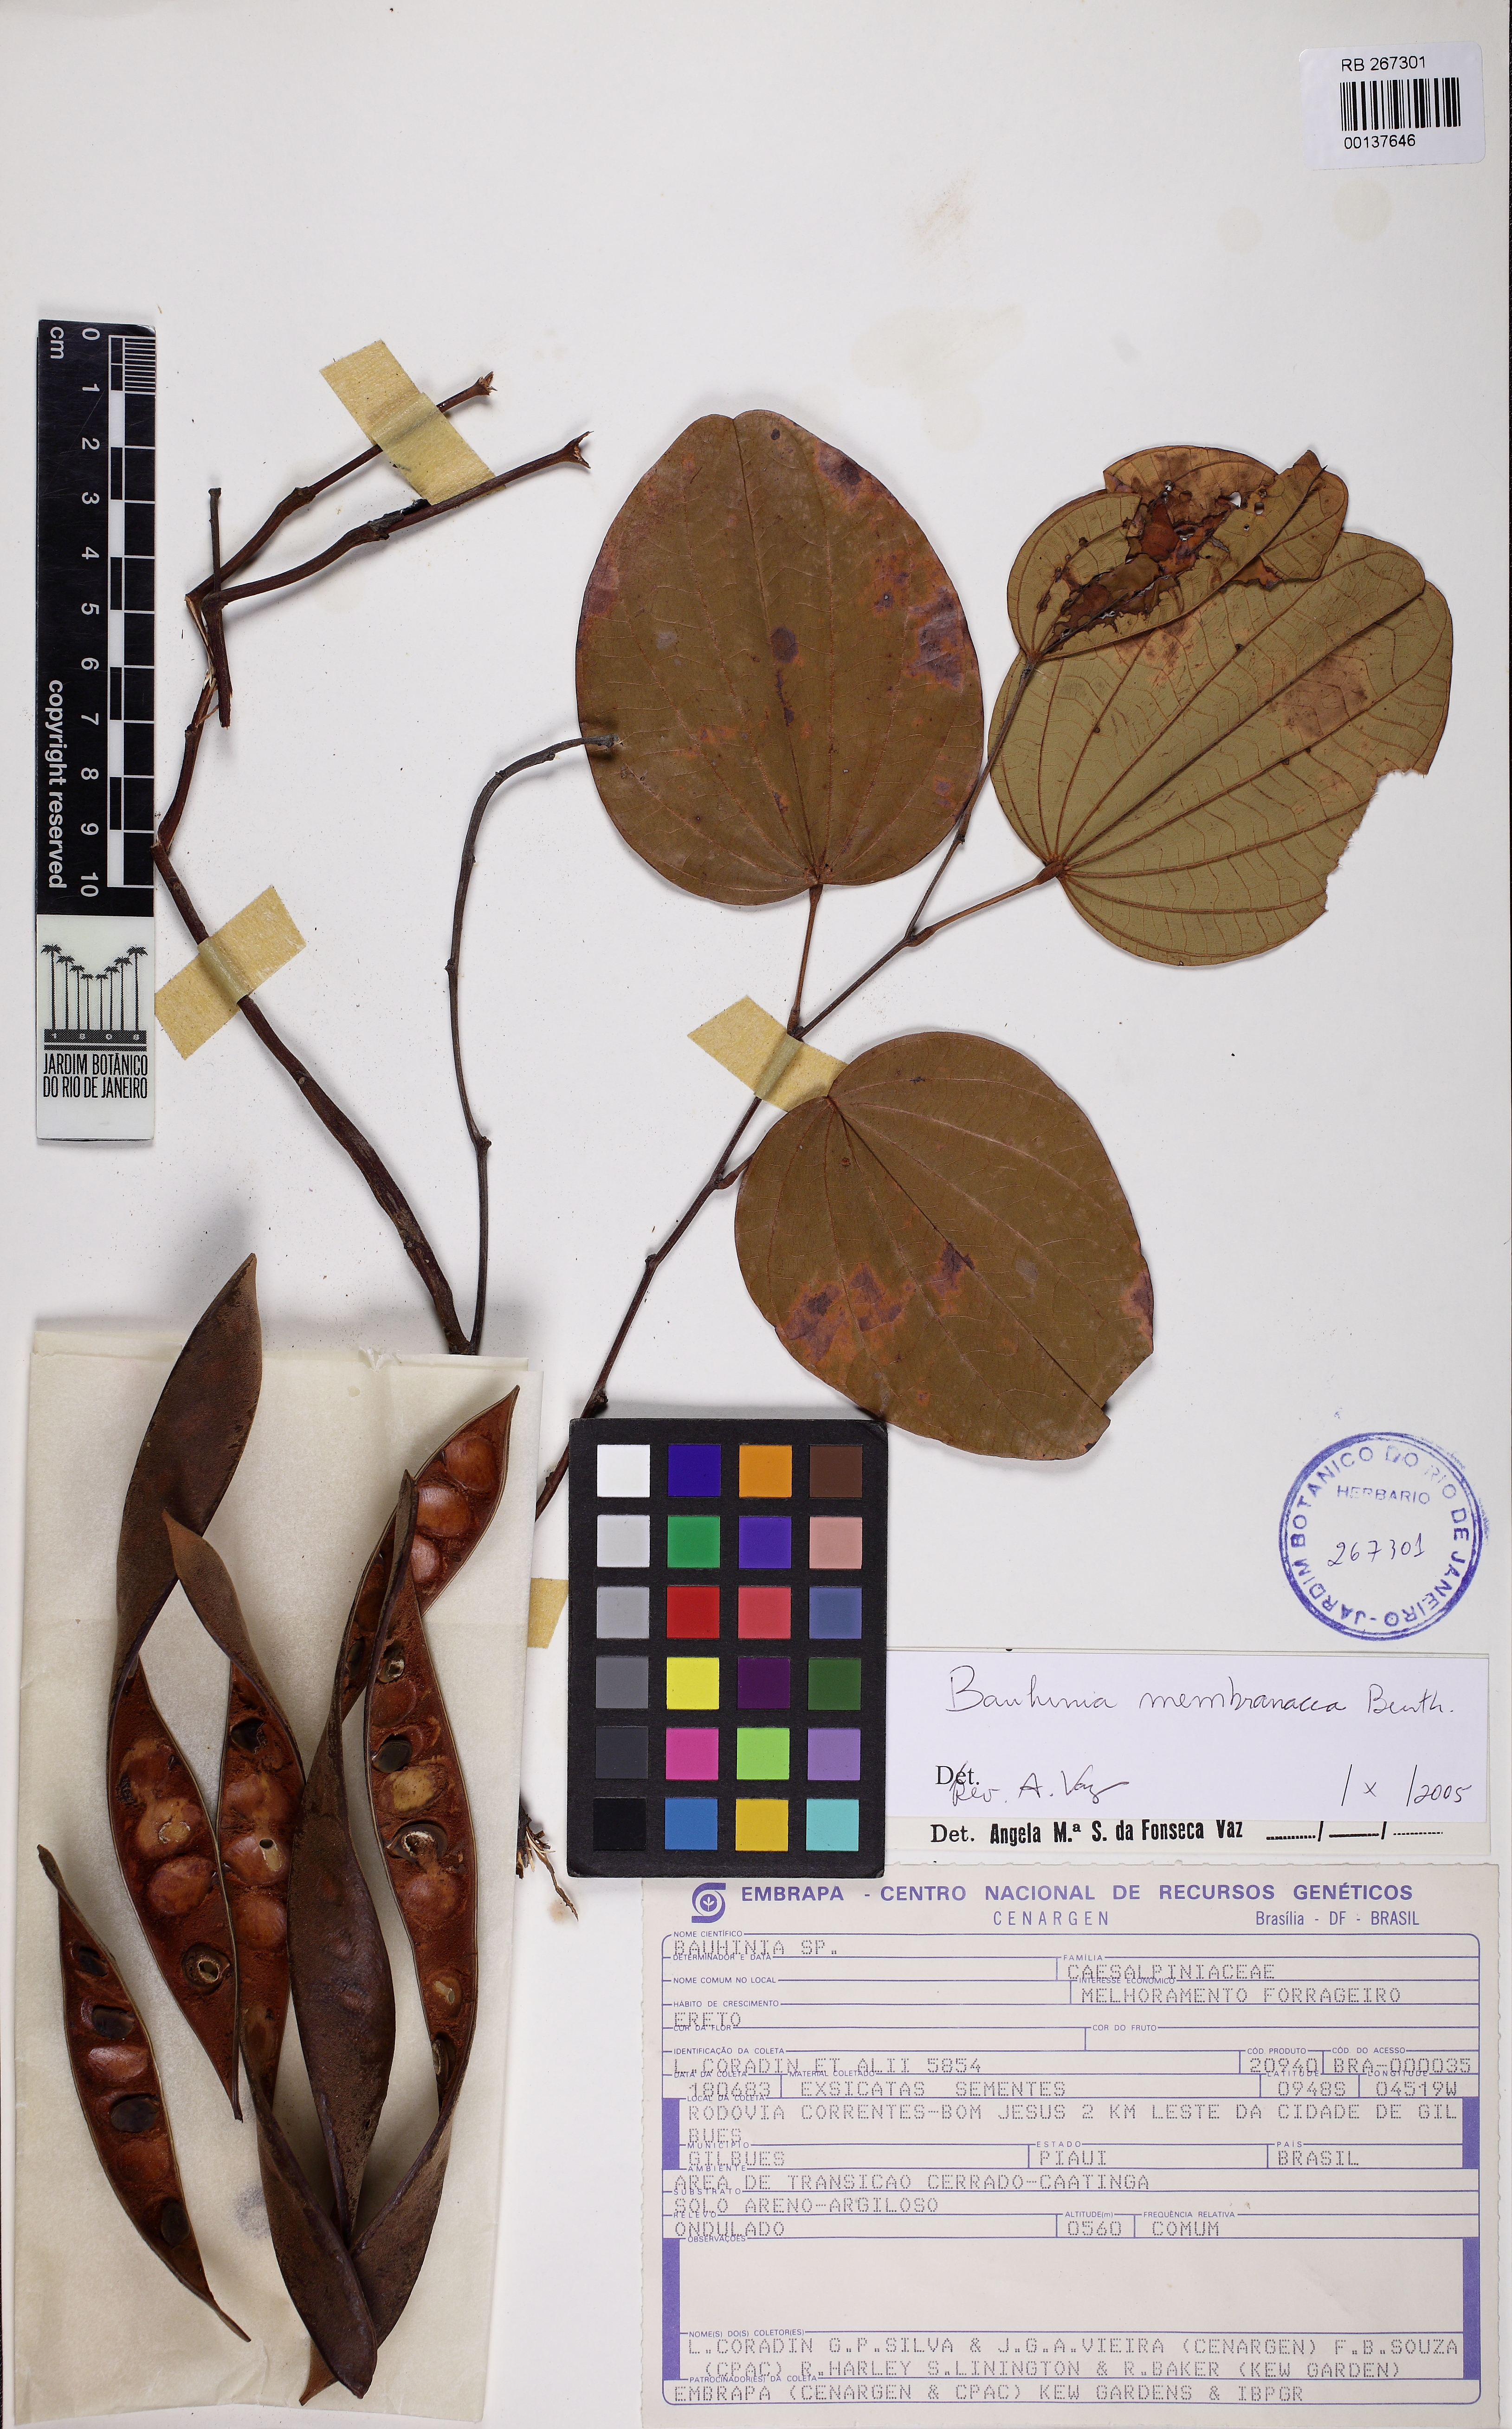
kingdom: Plantae
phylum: Tracheophyta
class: Magnoliopsida
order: Fabales
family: Fabaceae
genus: Bauhinia
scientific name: Bauhinia membranacea
